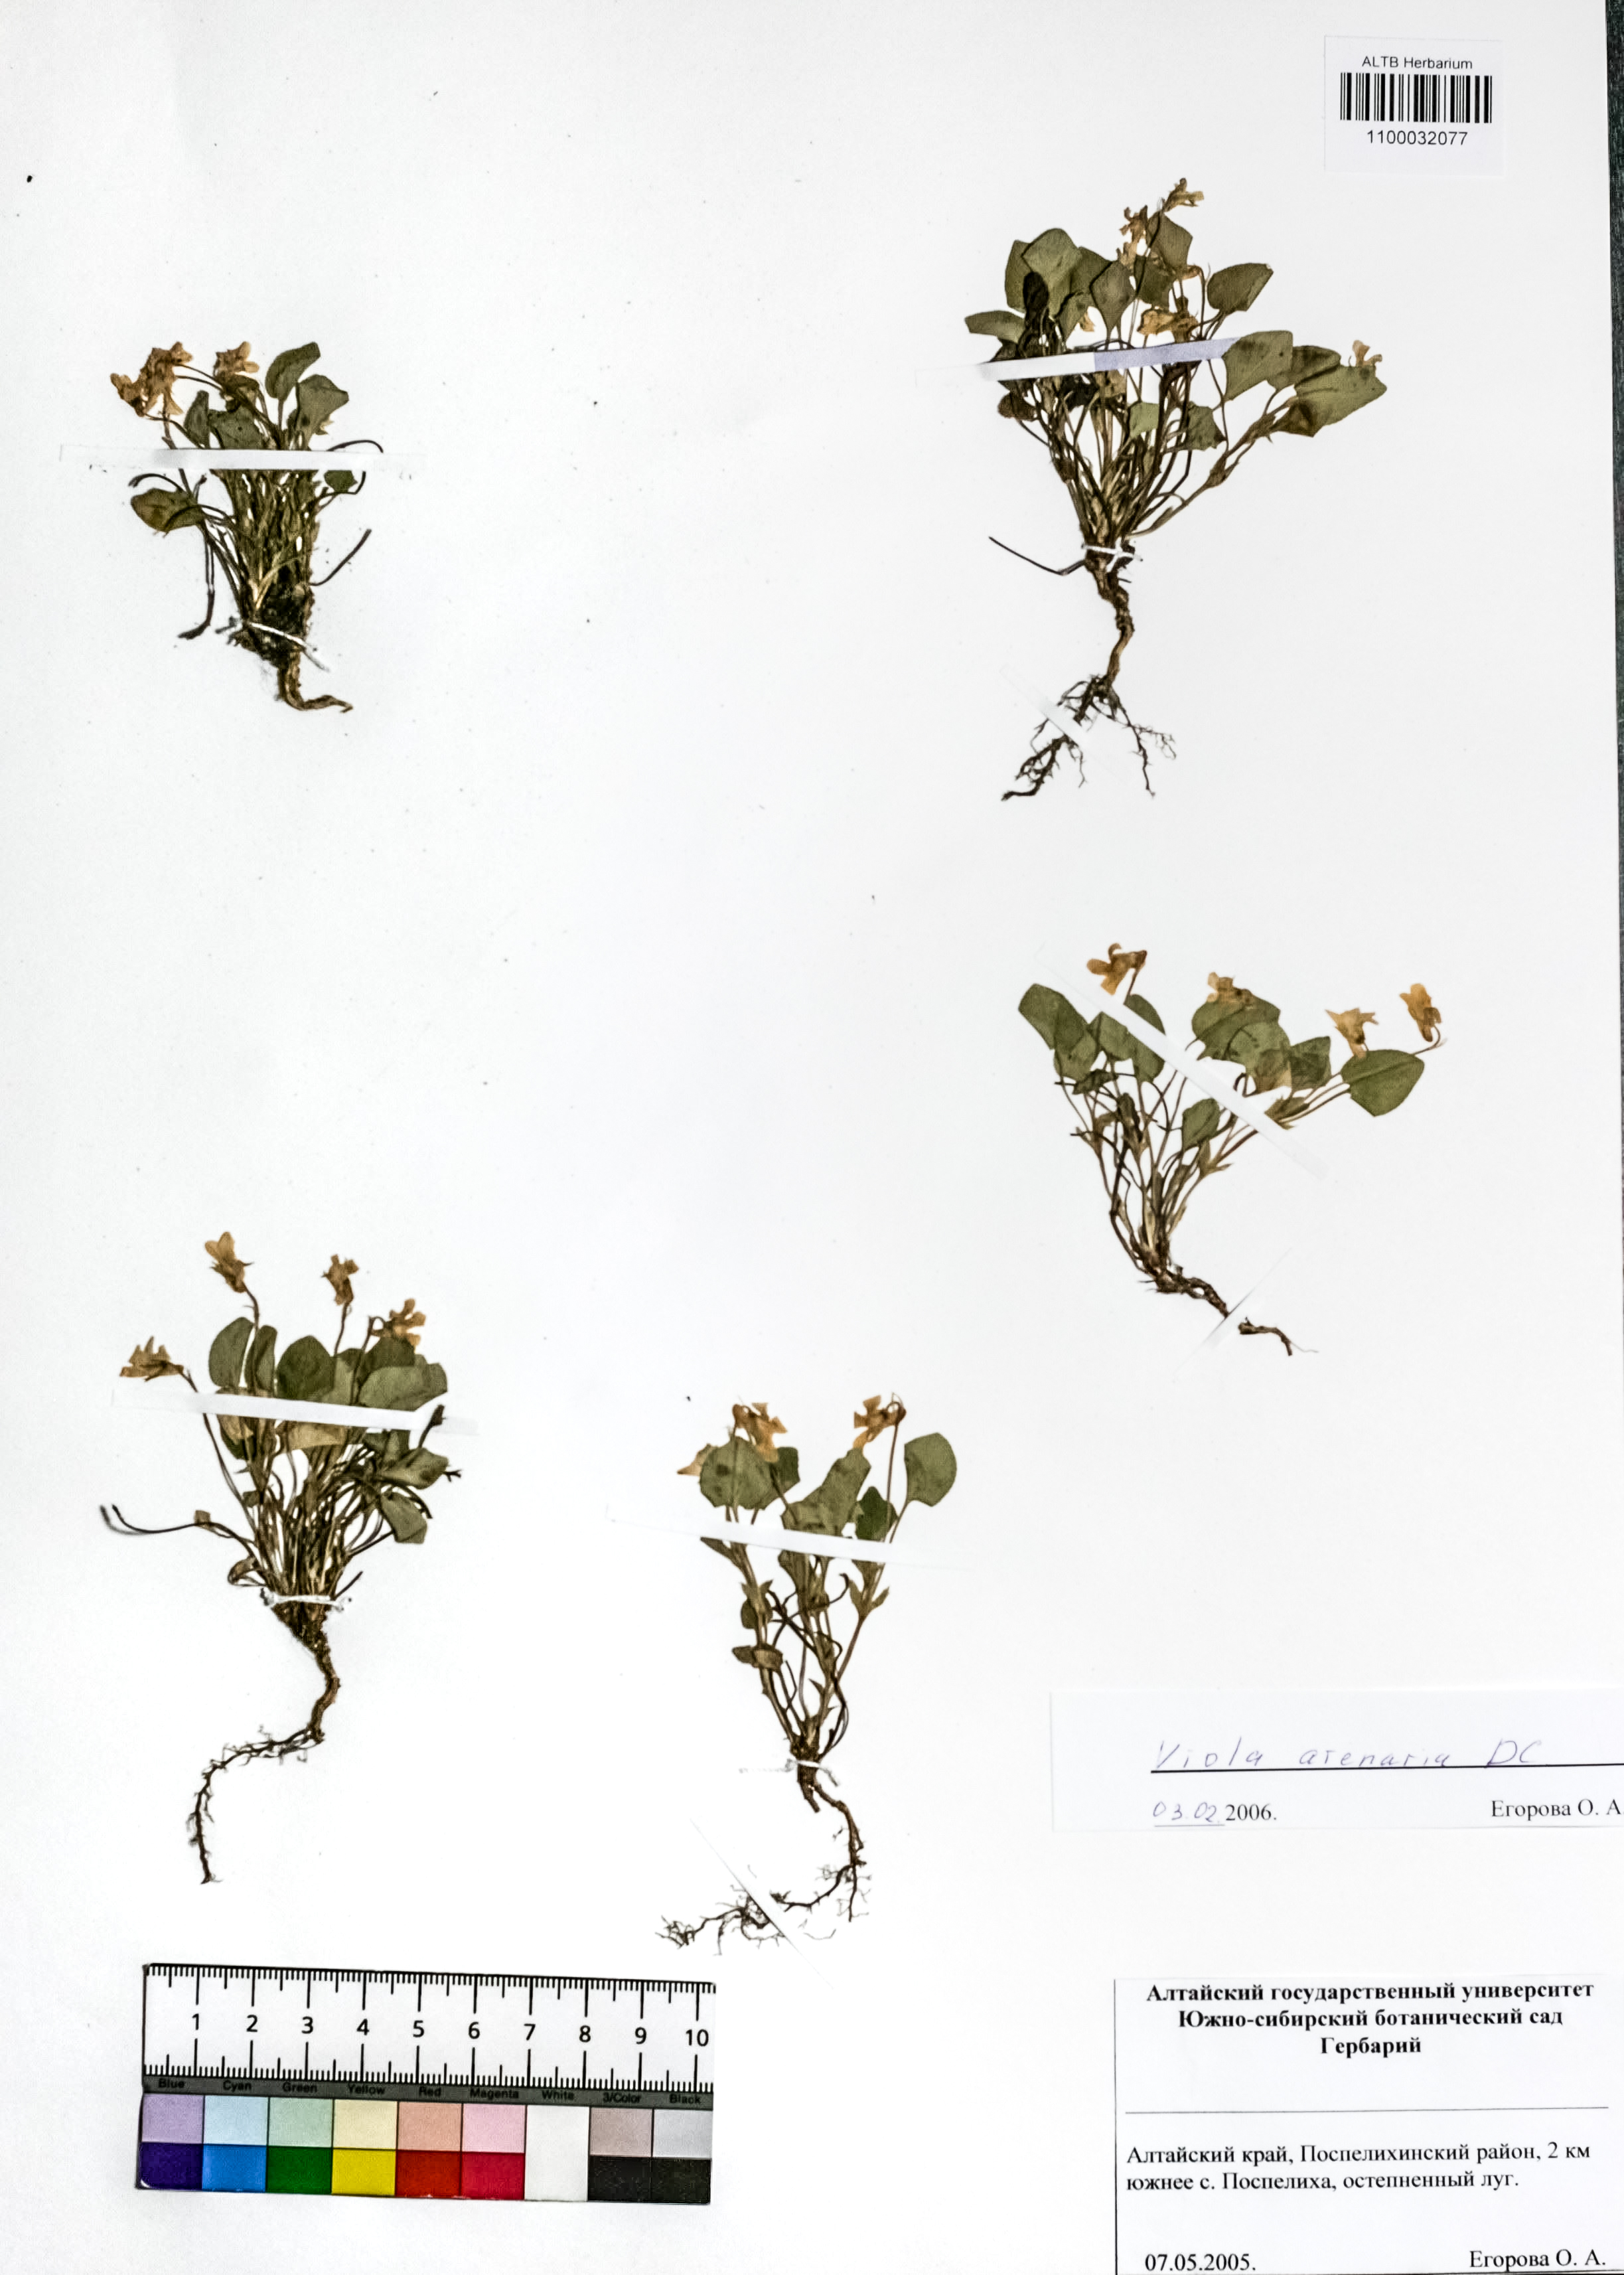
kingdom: Plantae
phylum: Tracheophyta
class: Magnoliopsida
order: Malpighiales
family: Violaceae
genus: Viola
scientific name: Viola rupestris
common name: Teesdale violet
